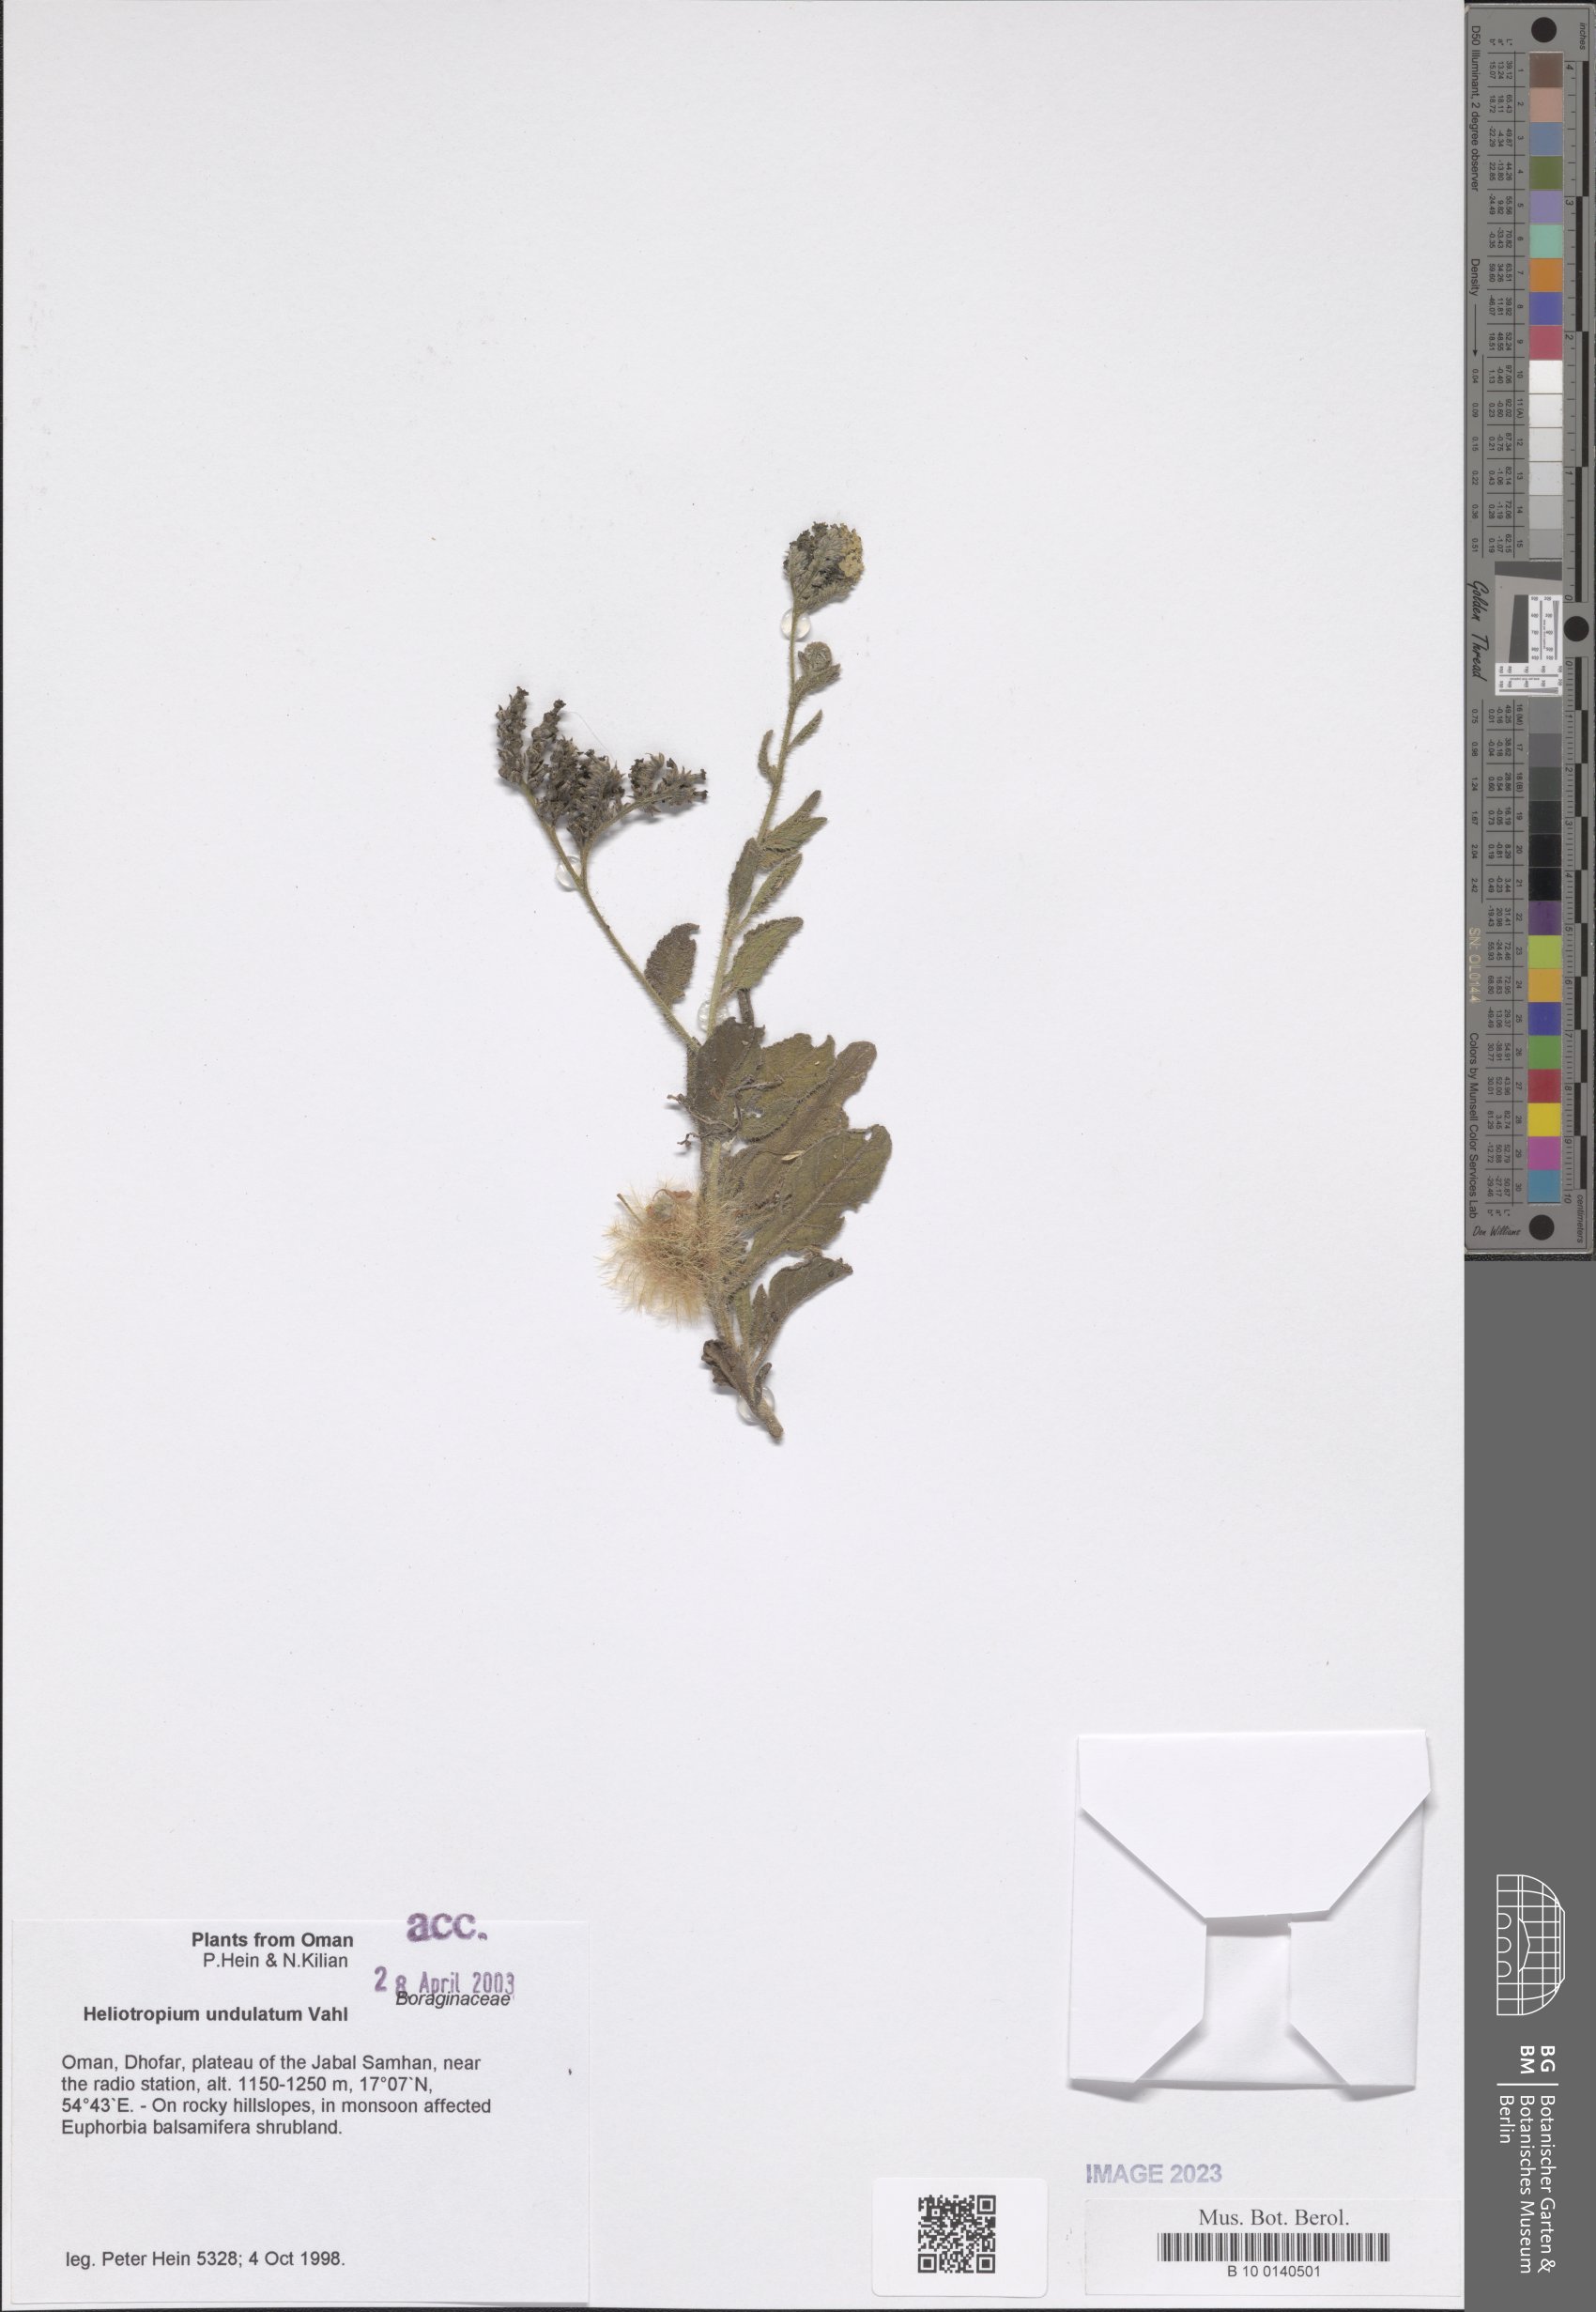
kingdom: Plantae
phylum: Tracheophyta
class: Magnoliopsida
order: Boraginales
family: Heliotropiaceae
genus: Heliotropium
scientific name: Heliotropium bacciferum
